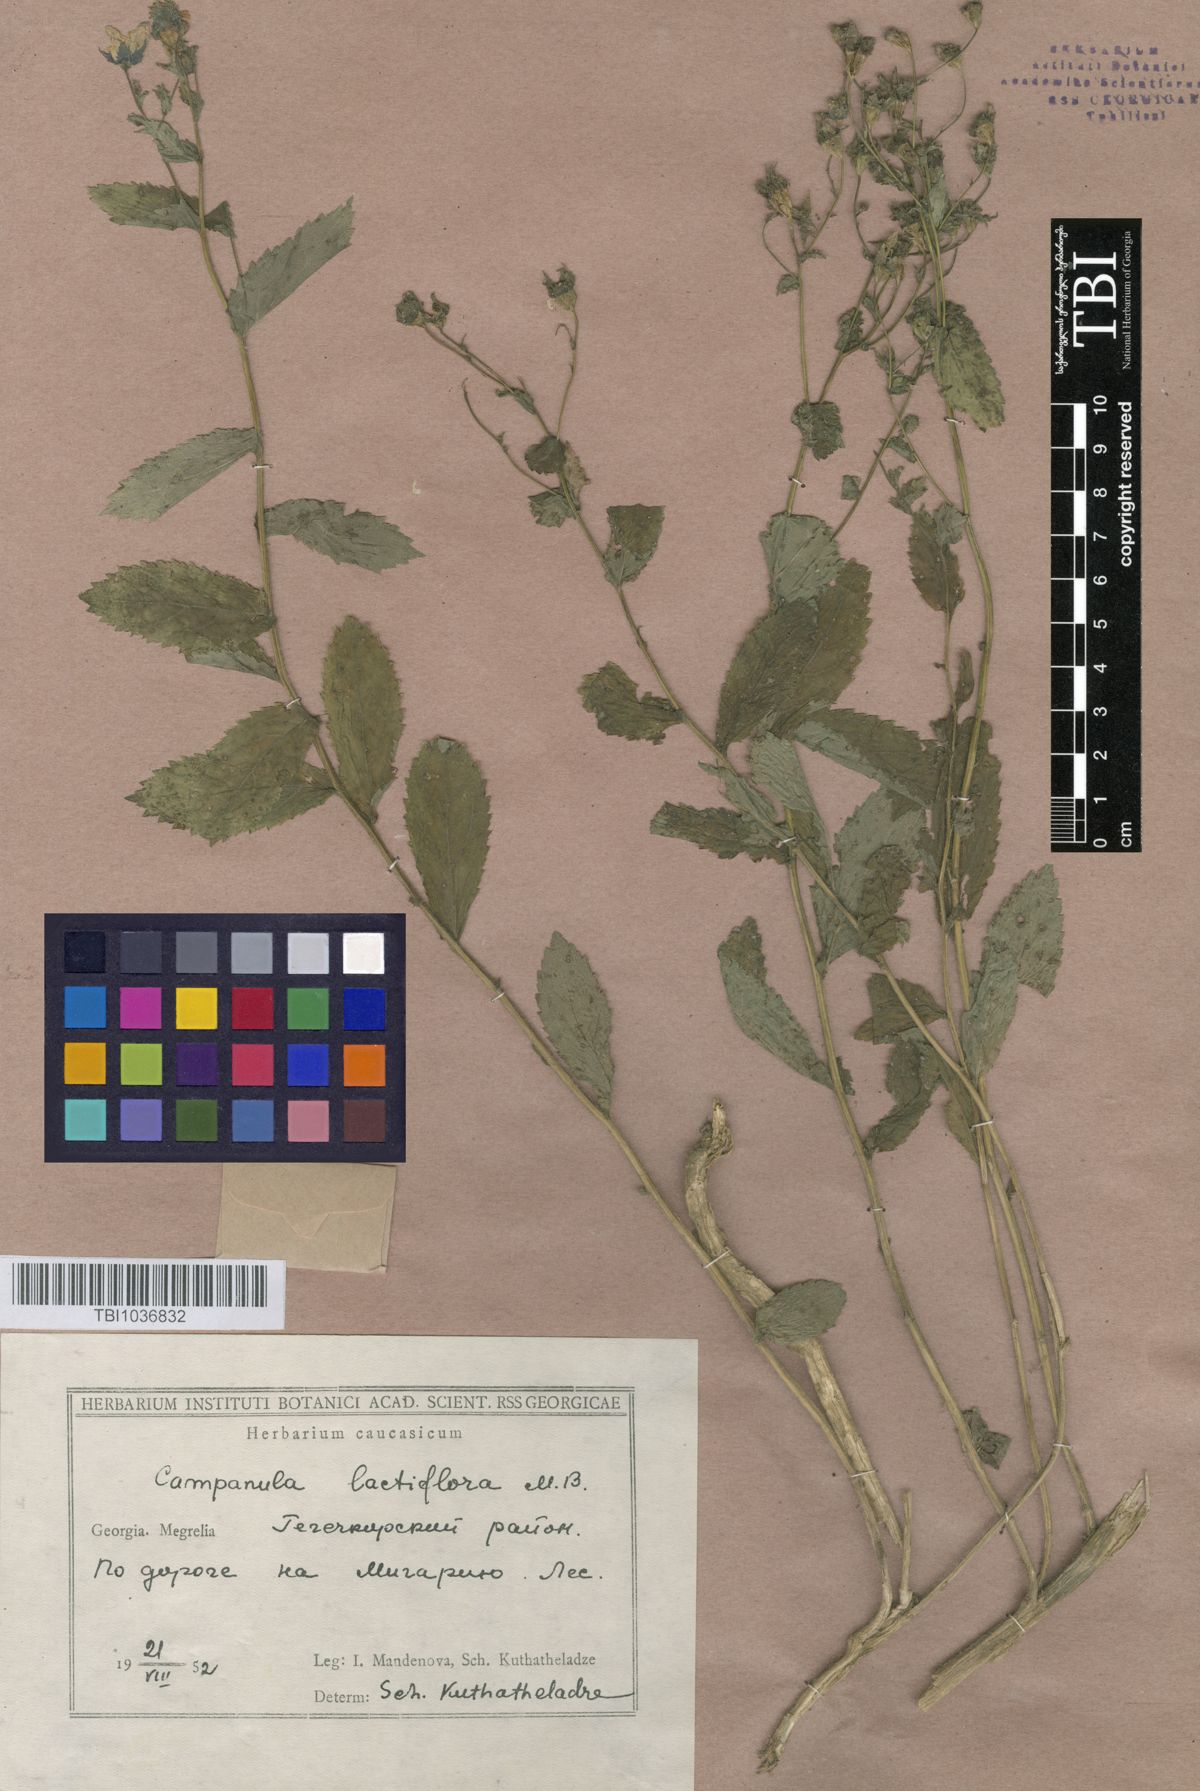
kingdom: Plantae
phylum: Tracheophyta
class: Magnoliopsida
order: Asterales
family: Campanulaceae
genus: Campanula
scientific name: Campanula lactiflora
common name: Milky bellflower
